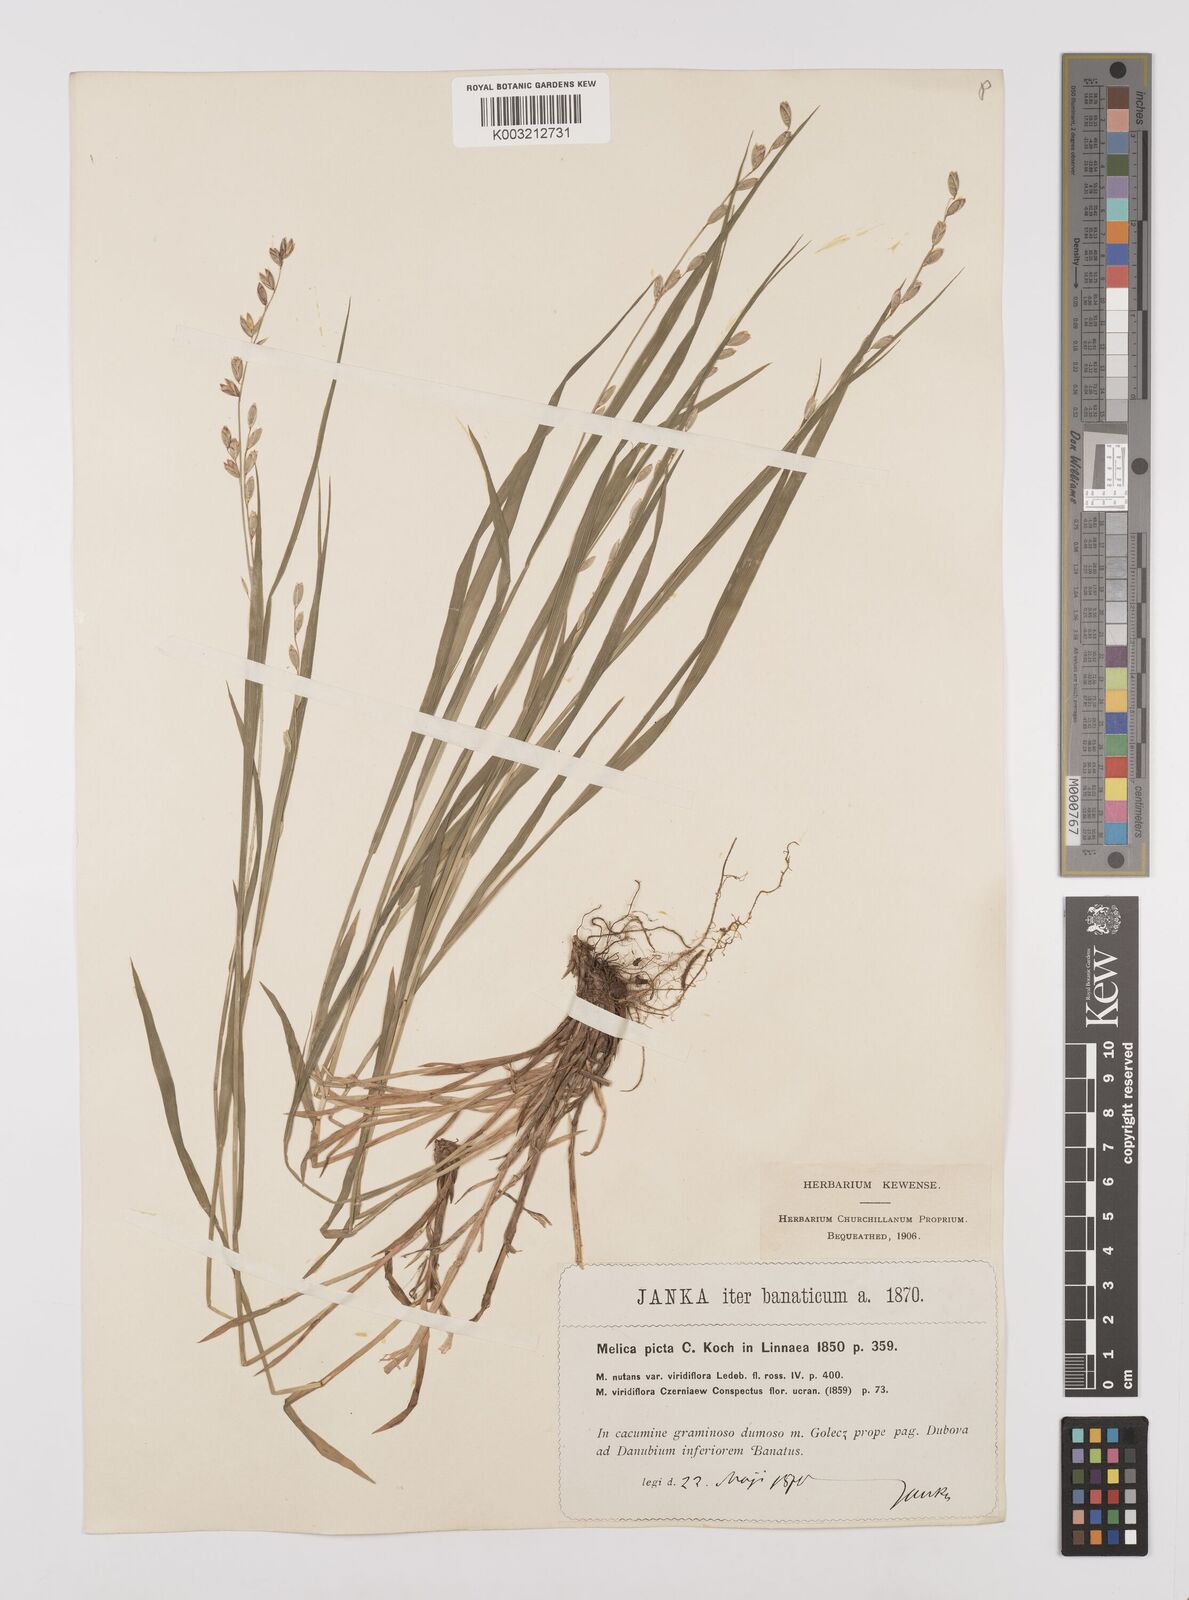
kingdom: Plantae
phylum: Tracheophyta
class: Liliopsida
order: Poales
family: Poaceae
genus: Melica
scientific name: Melica picta
